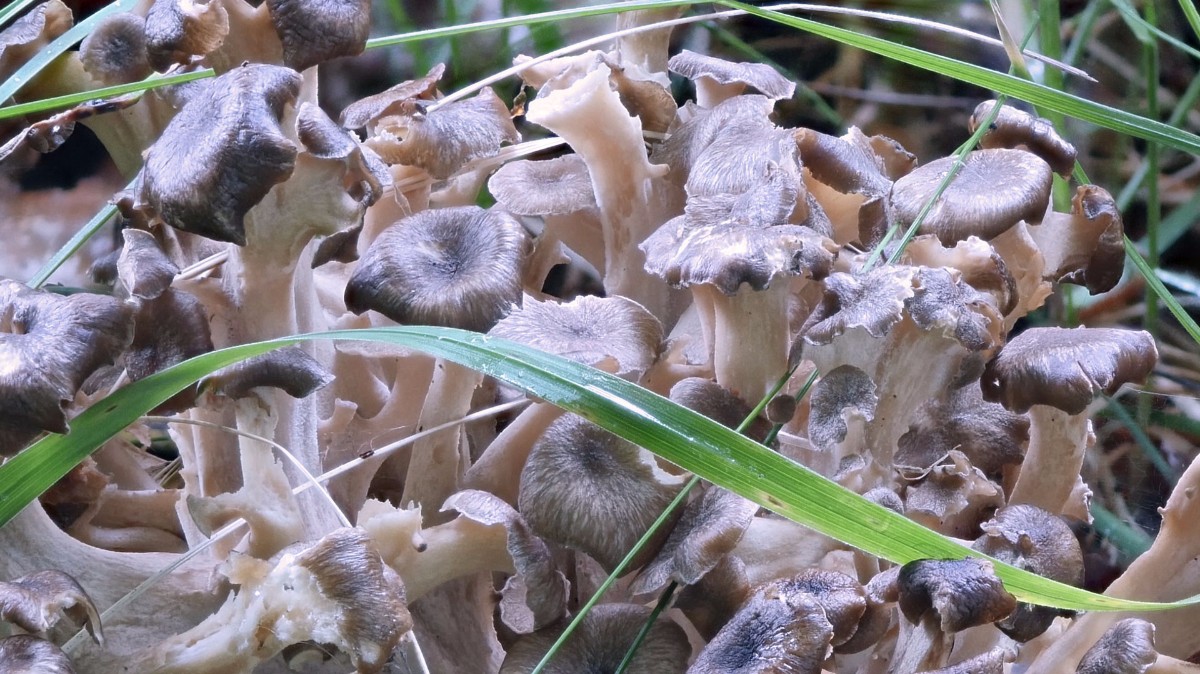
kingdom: Fungi
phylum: Basidiomycota
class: Agaricomycetes
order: Polyporales
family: Polyporaceae
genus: Polyporus
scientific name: Polyporus umbellatus
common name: skærmformet stilkporesvamp
